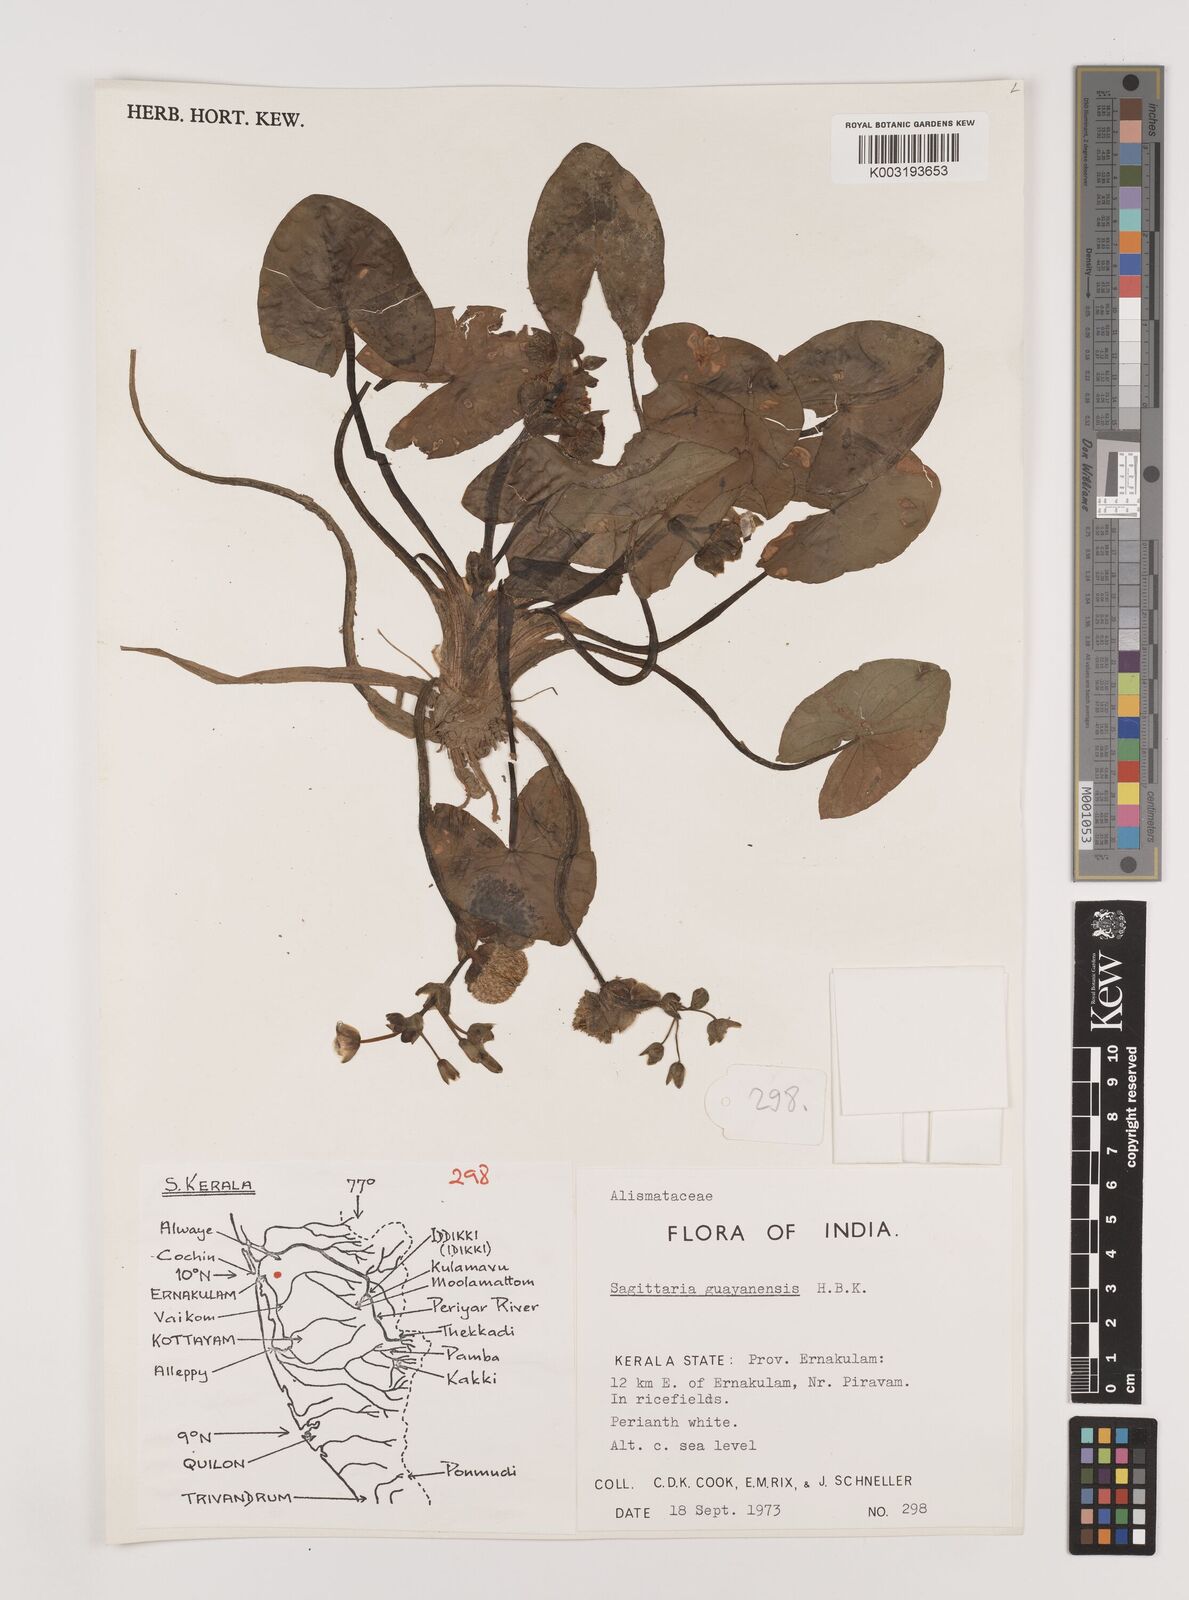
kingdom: Plantae
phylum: Tracheophyta
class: Liliopsida
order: Alismatales
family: Alismataceae
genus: Sagittaria
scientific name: Sagittaria guayanensis
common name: Guyanese arrowhead
